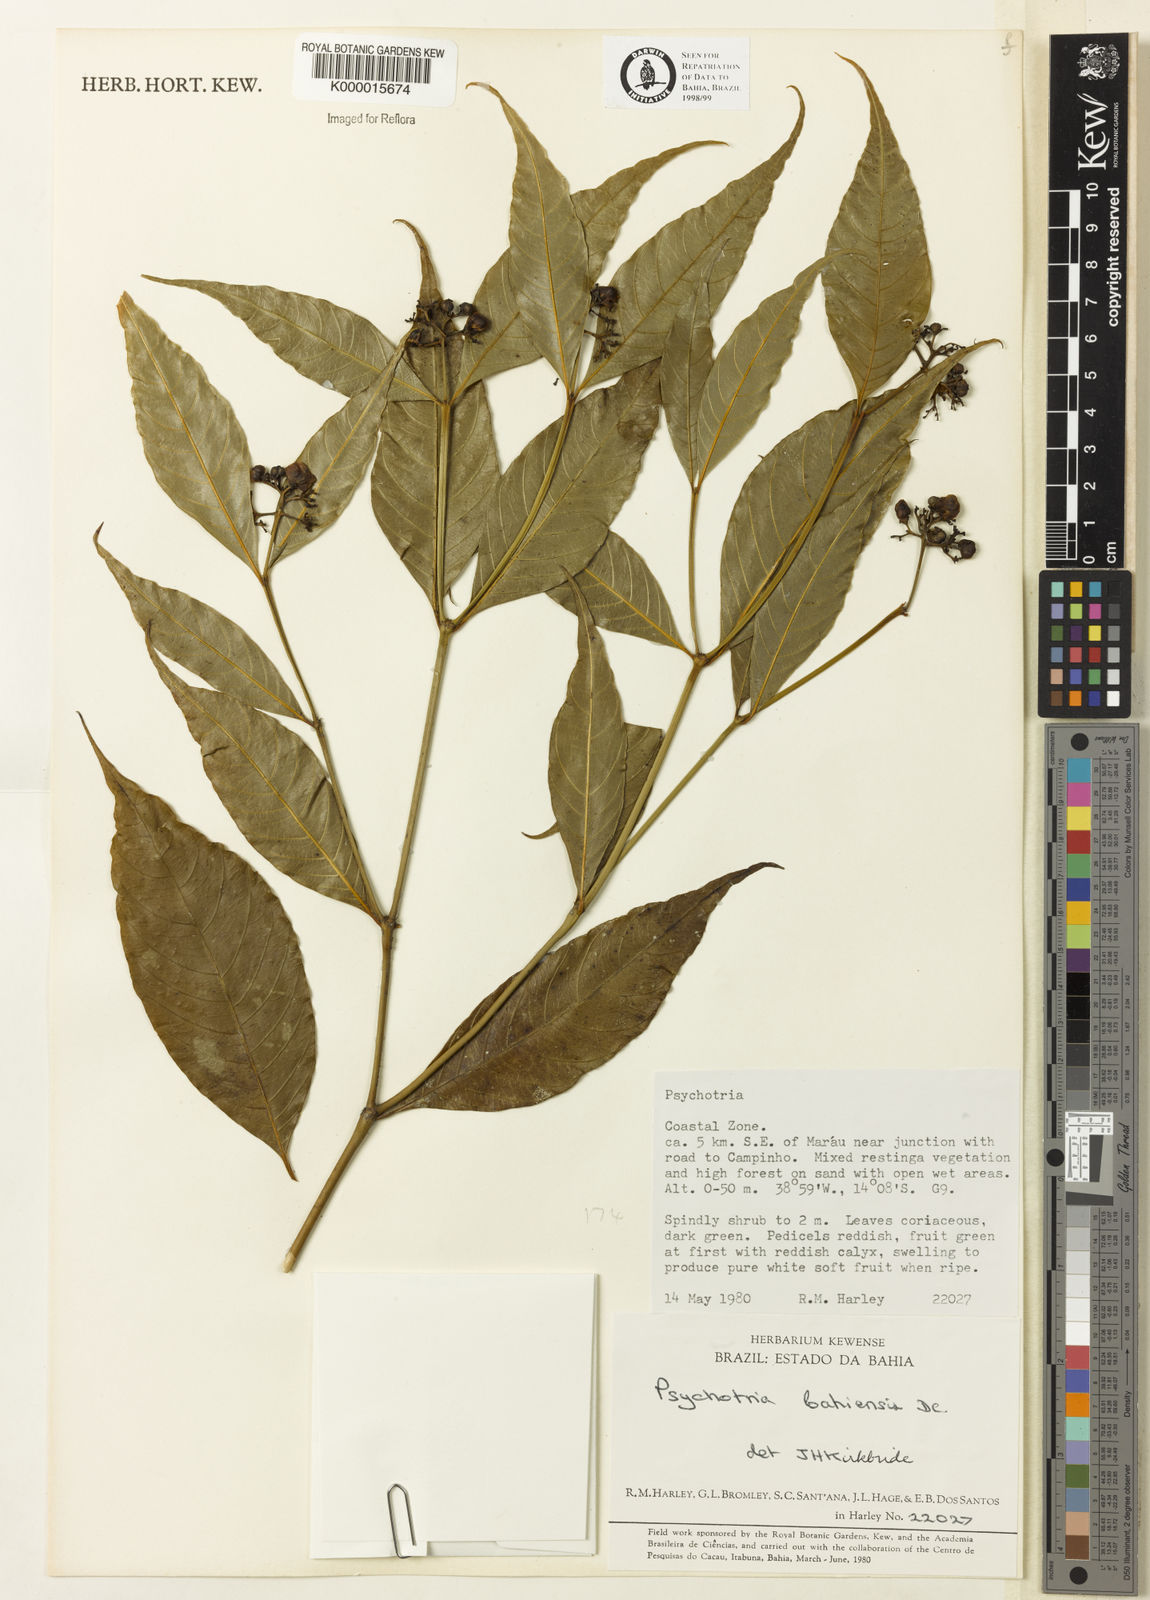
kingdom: Plantae
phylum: Tracheophyta
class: Magnoliopsida
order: Gentianales
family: Rubiaceae
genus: Psychotria
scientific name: Psychotria bahiensis
